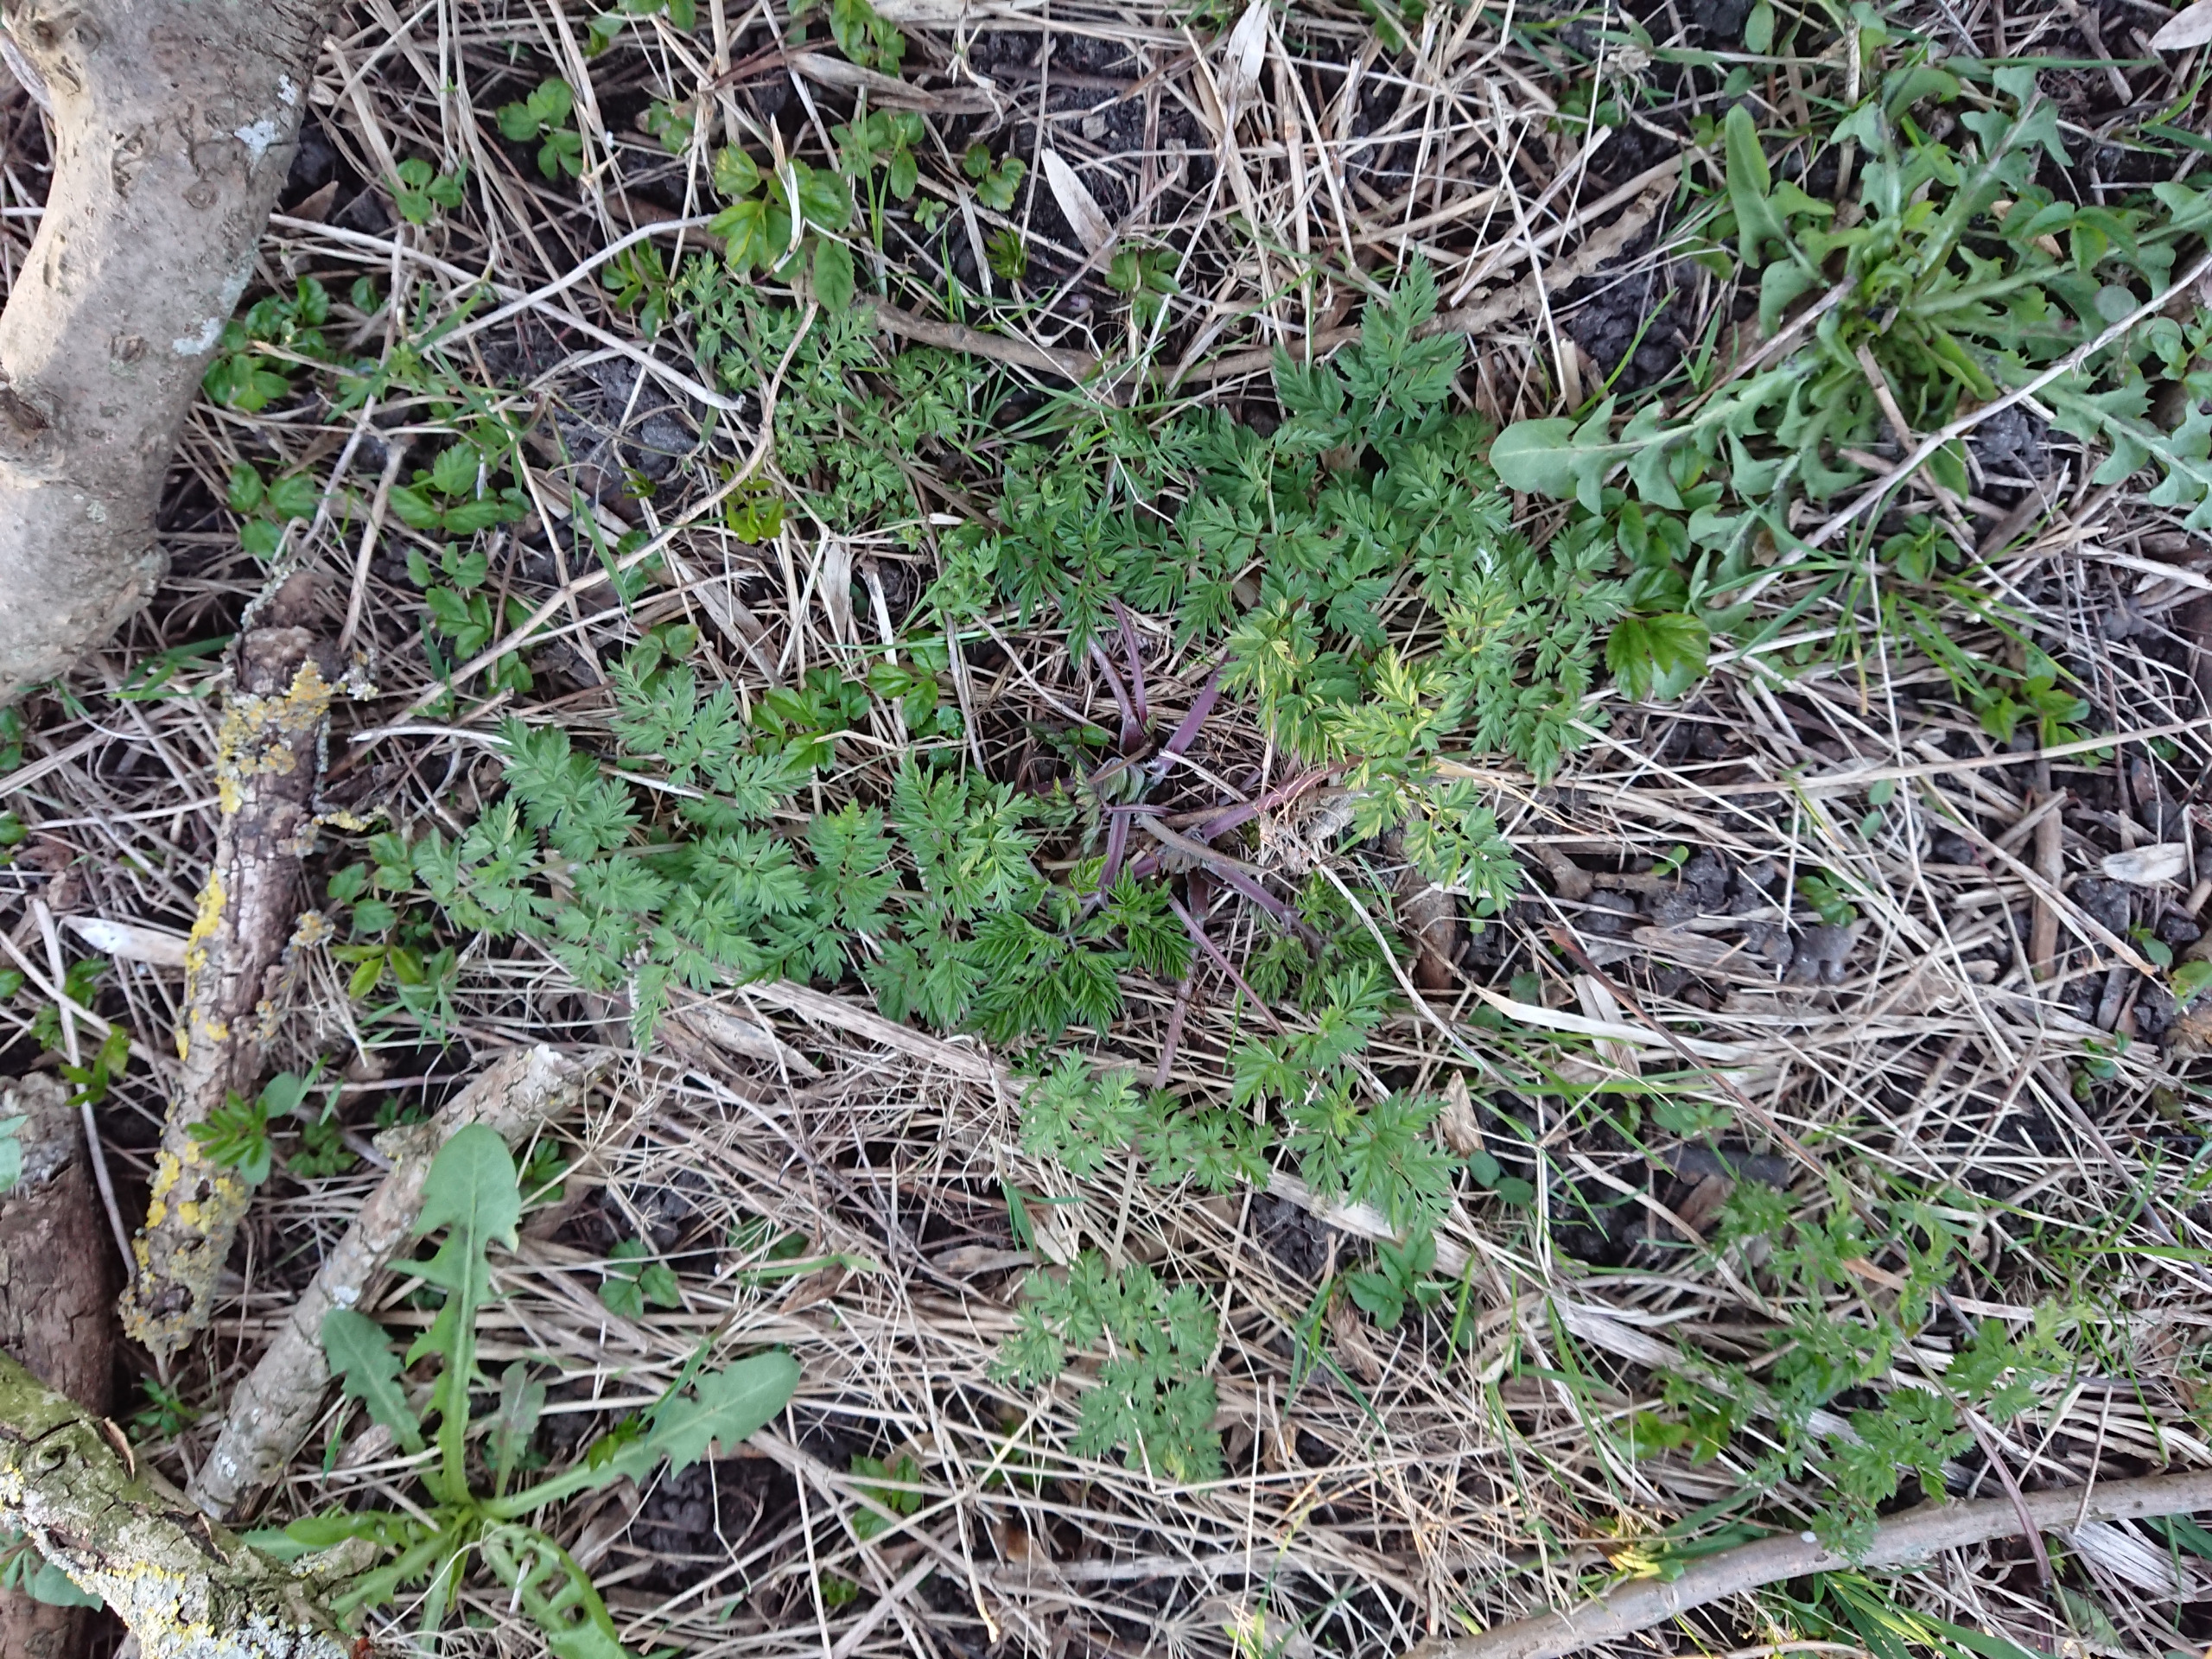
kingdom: Plantae
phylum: Tracheophyta
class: Magnoliopsida
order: Apiales
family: Apiaceae
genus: Anthriscus
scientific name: Anthriscus sylvestris
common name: Vild kørvel
